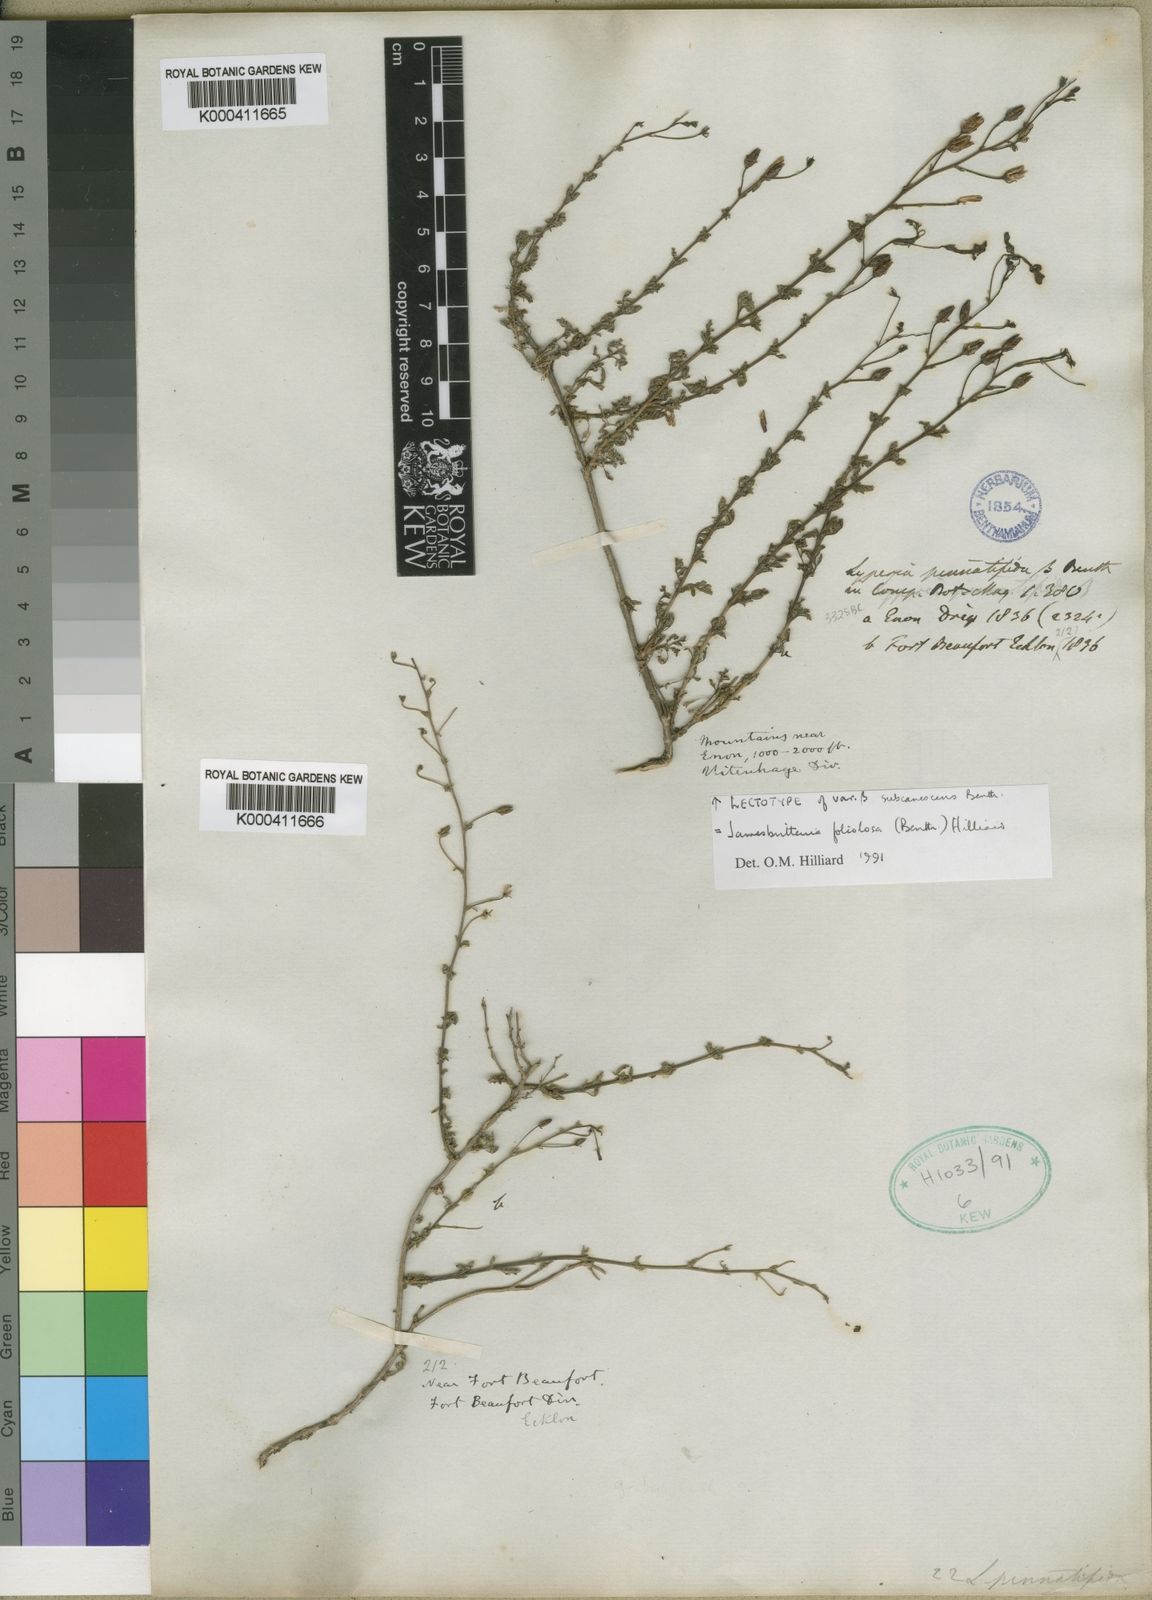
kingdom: Plantae
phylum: Tracheophyta
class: Magnoliopsida
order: Lamiales
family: Scrophulariaceae
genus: Jamesbrittenia
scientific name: Jamesbrittenia foliolosa
